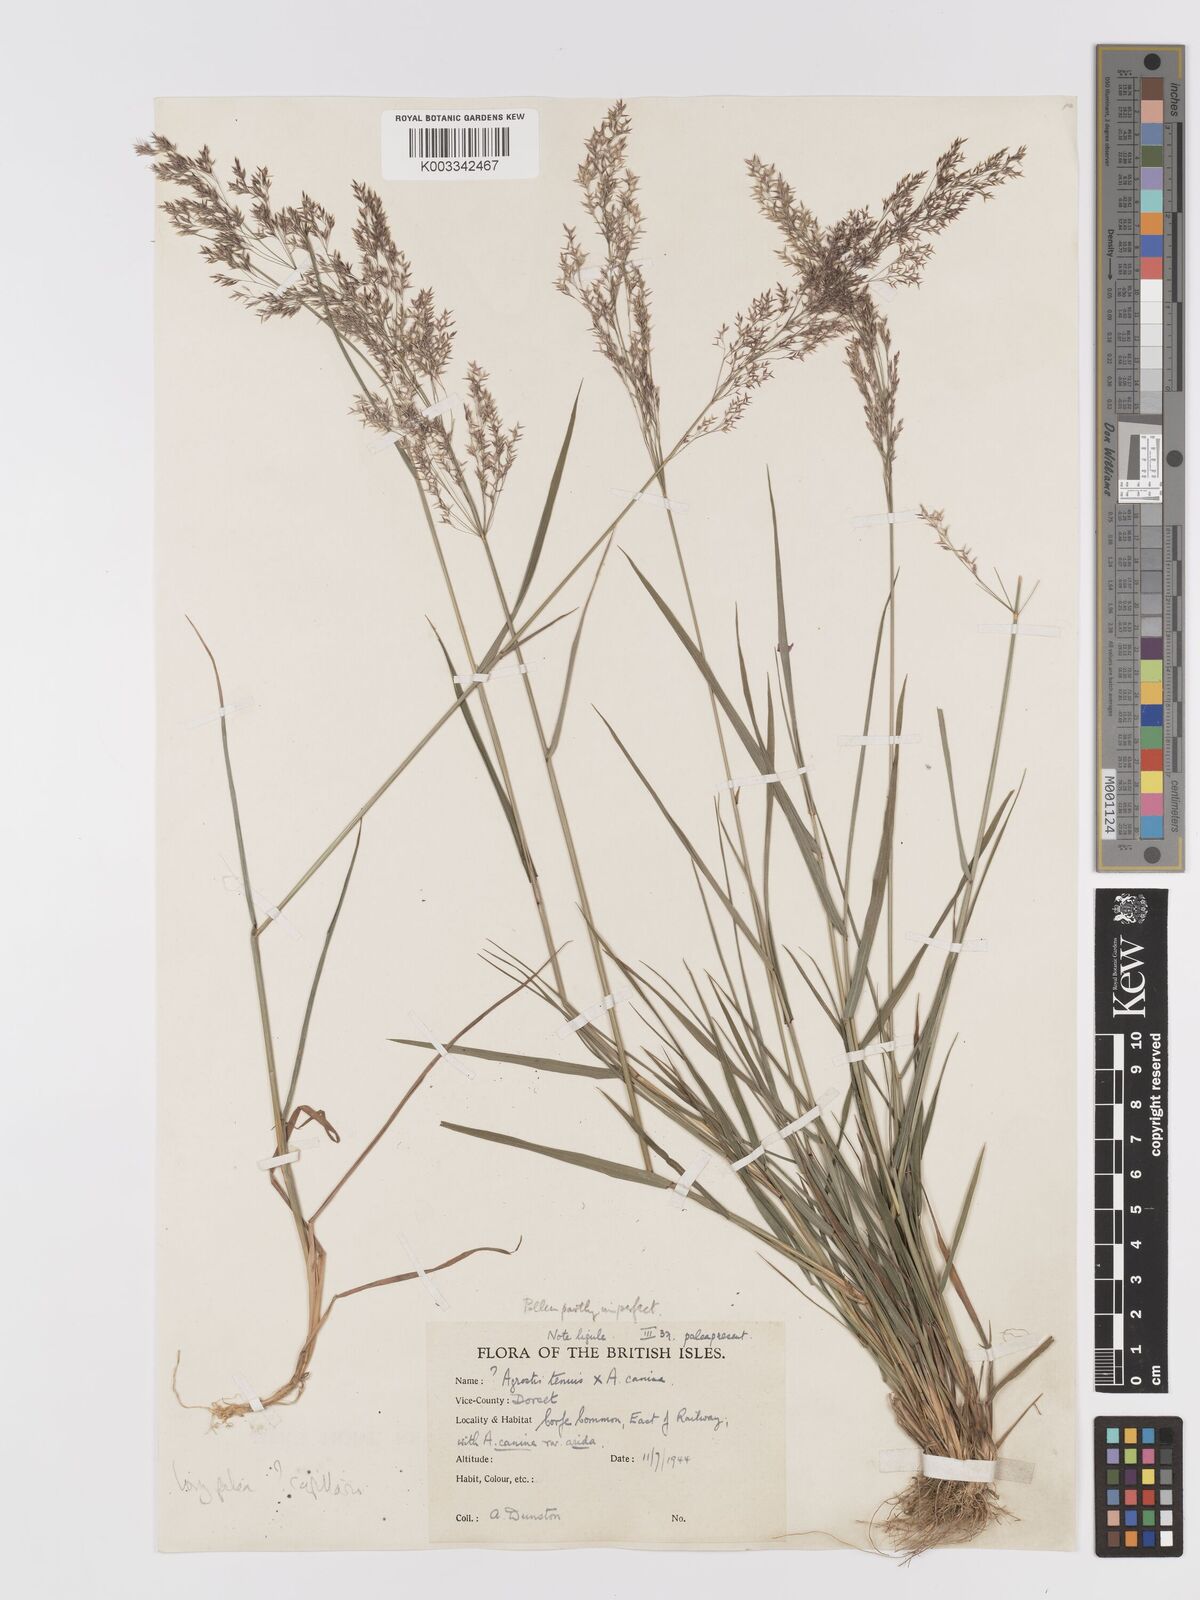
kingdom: Plantae
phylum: Tracheophyta
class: Liliopsida
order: Poales
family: Poaceae
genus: Agrostis
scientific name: Agrostis capillaris
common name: Colonial bentgrass
